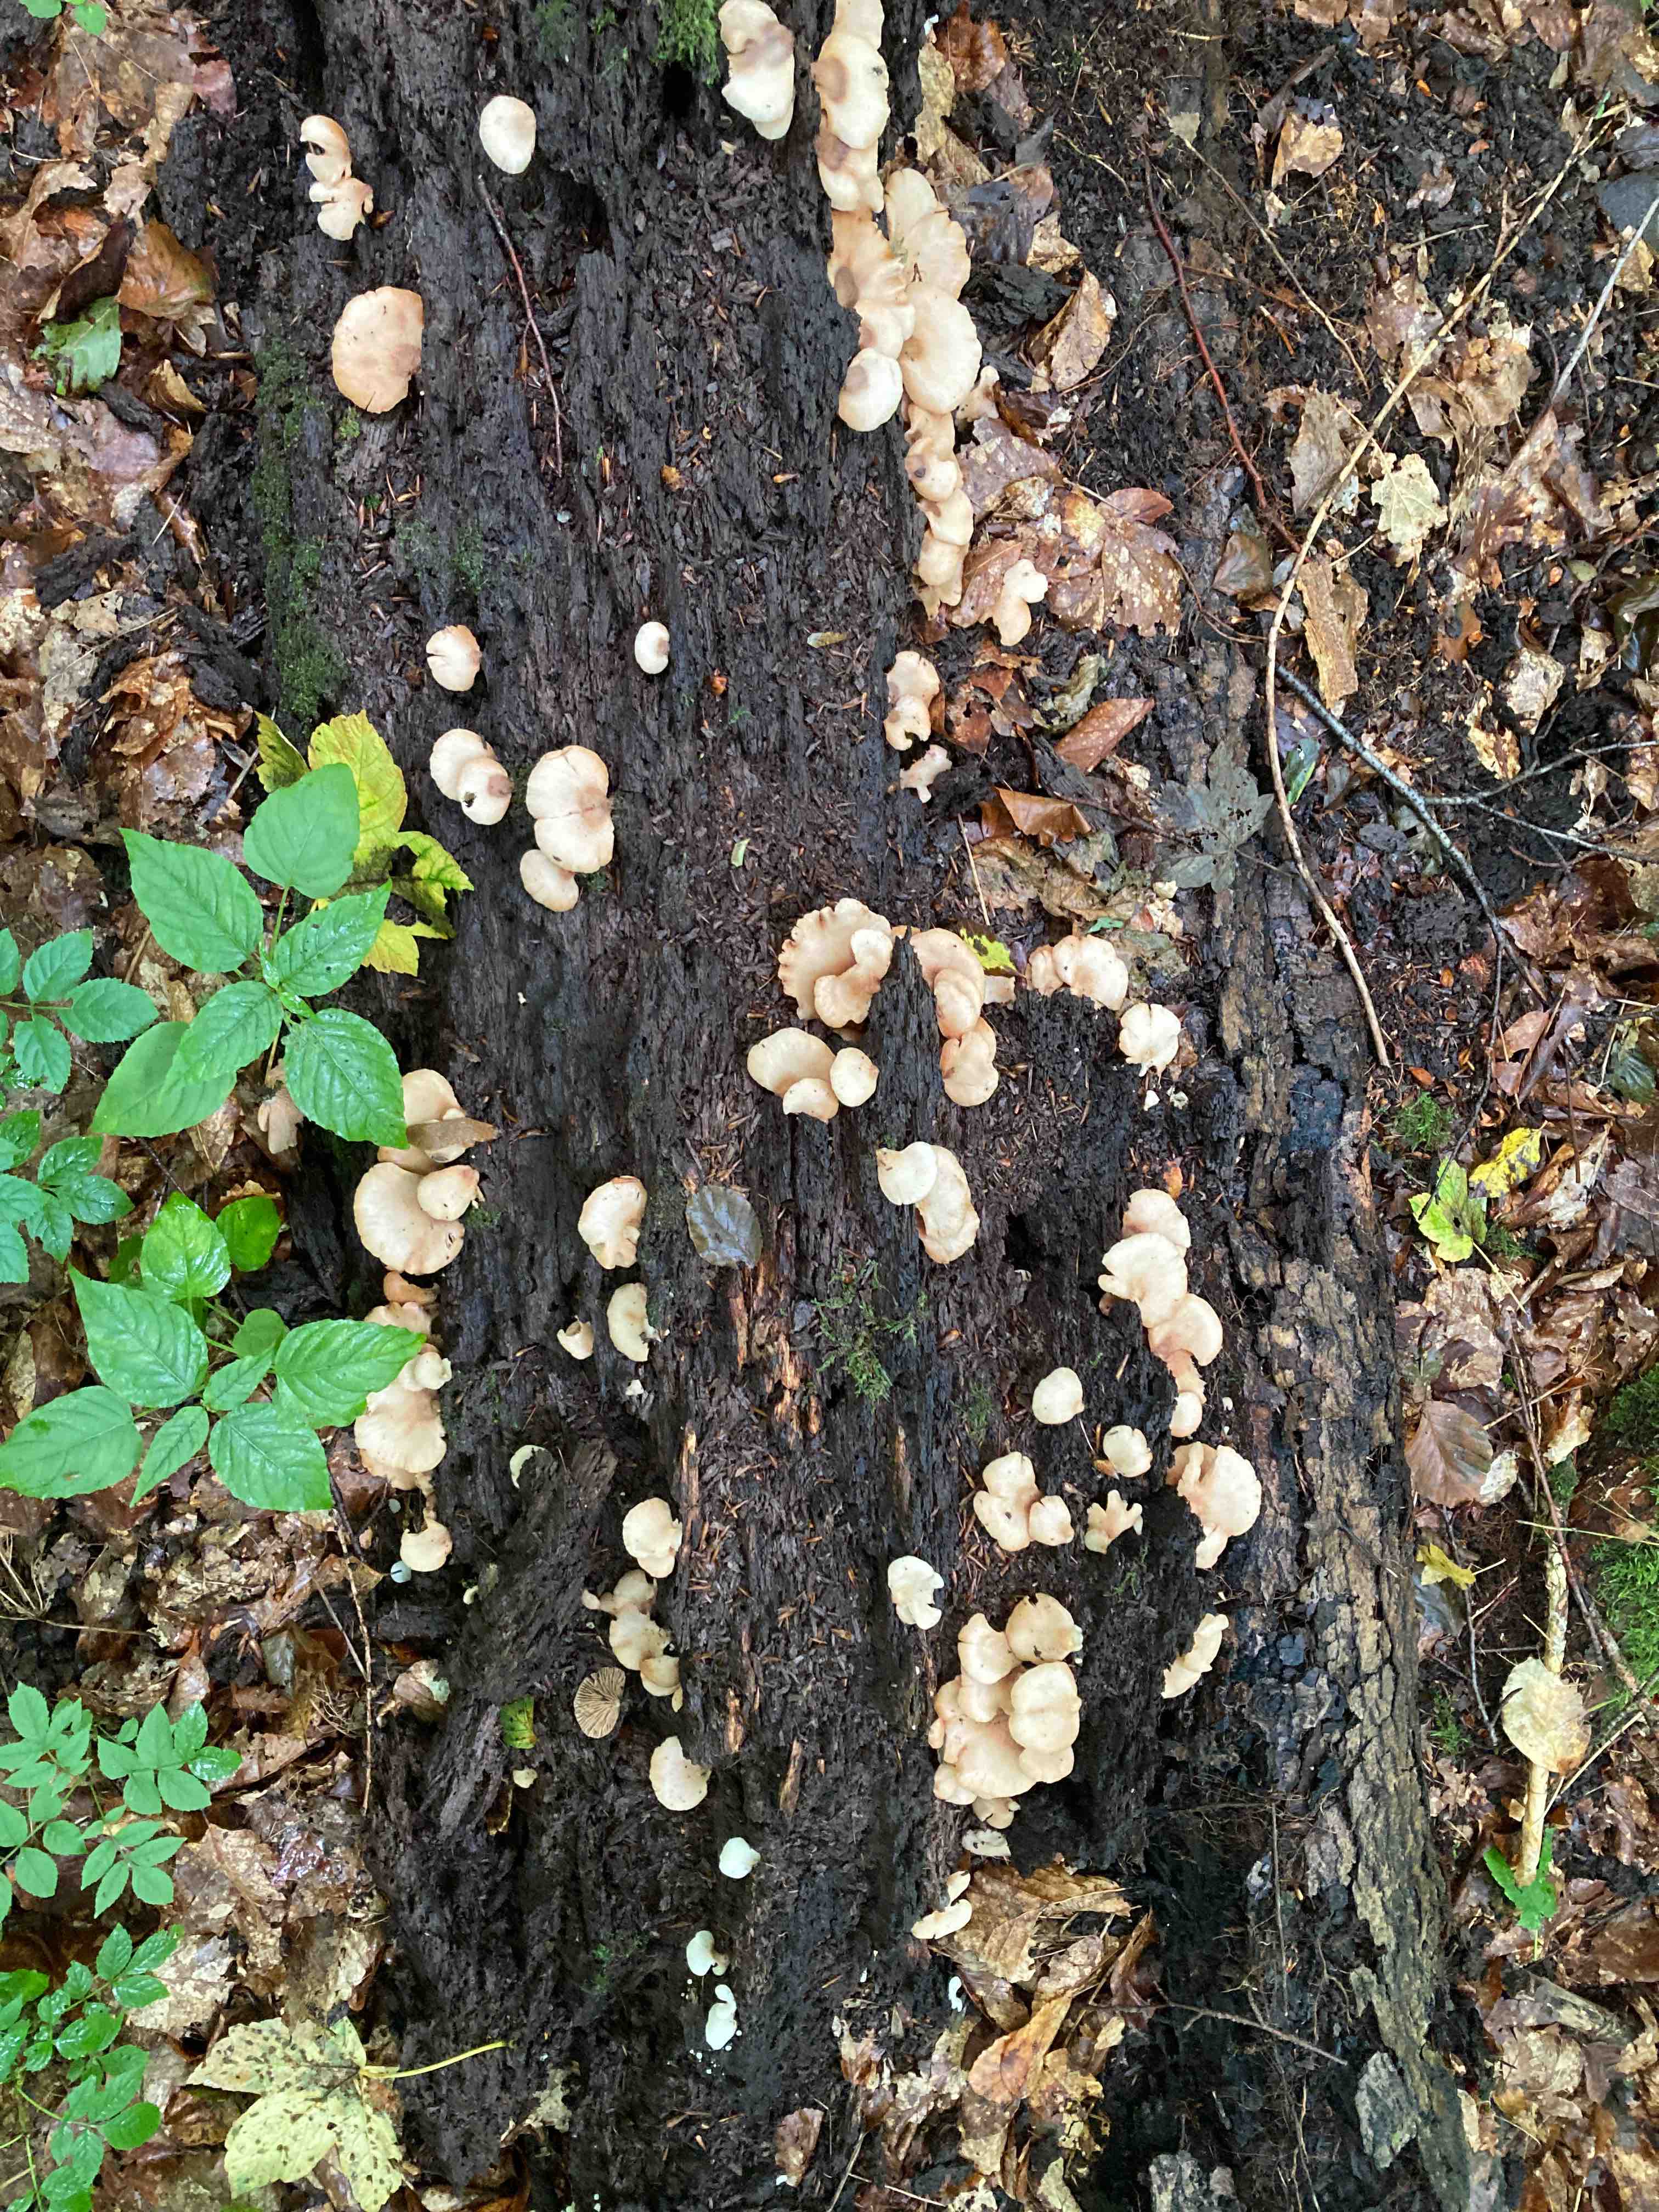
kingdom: Fungi
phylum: Basidiomycota
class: Agaricomycetes
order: Agaricales
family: Crepidotaceae
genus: Crepidotus
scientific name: Crepidotus applanatus
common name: tvefarvet muslingesvamp
